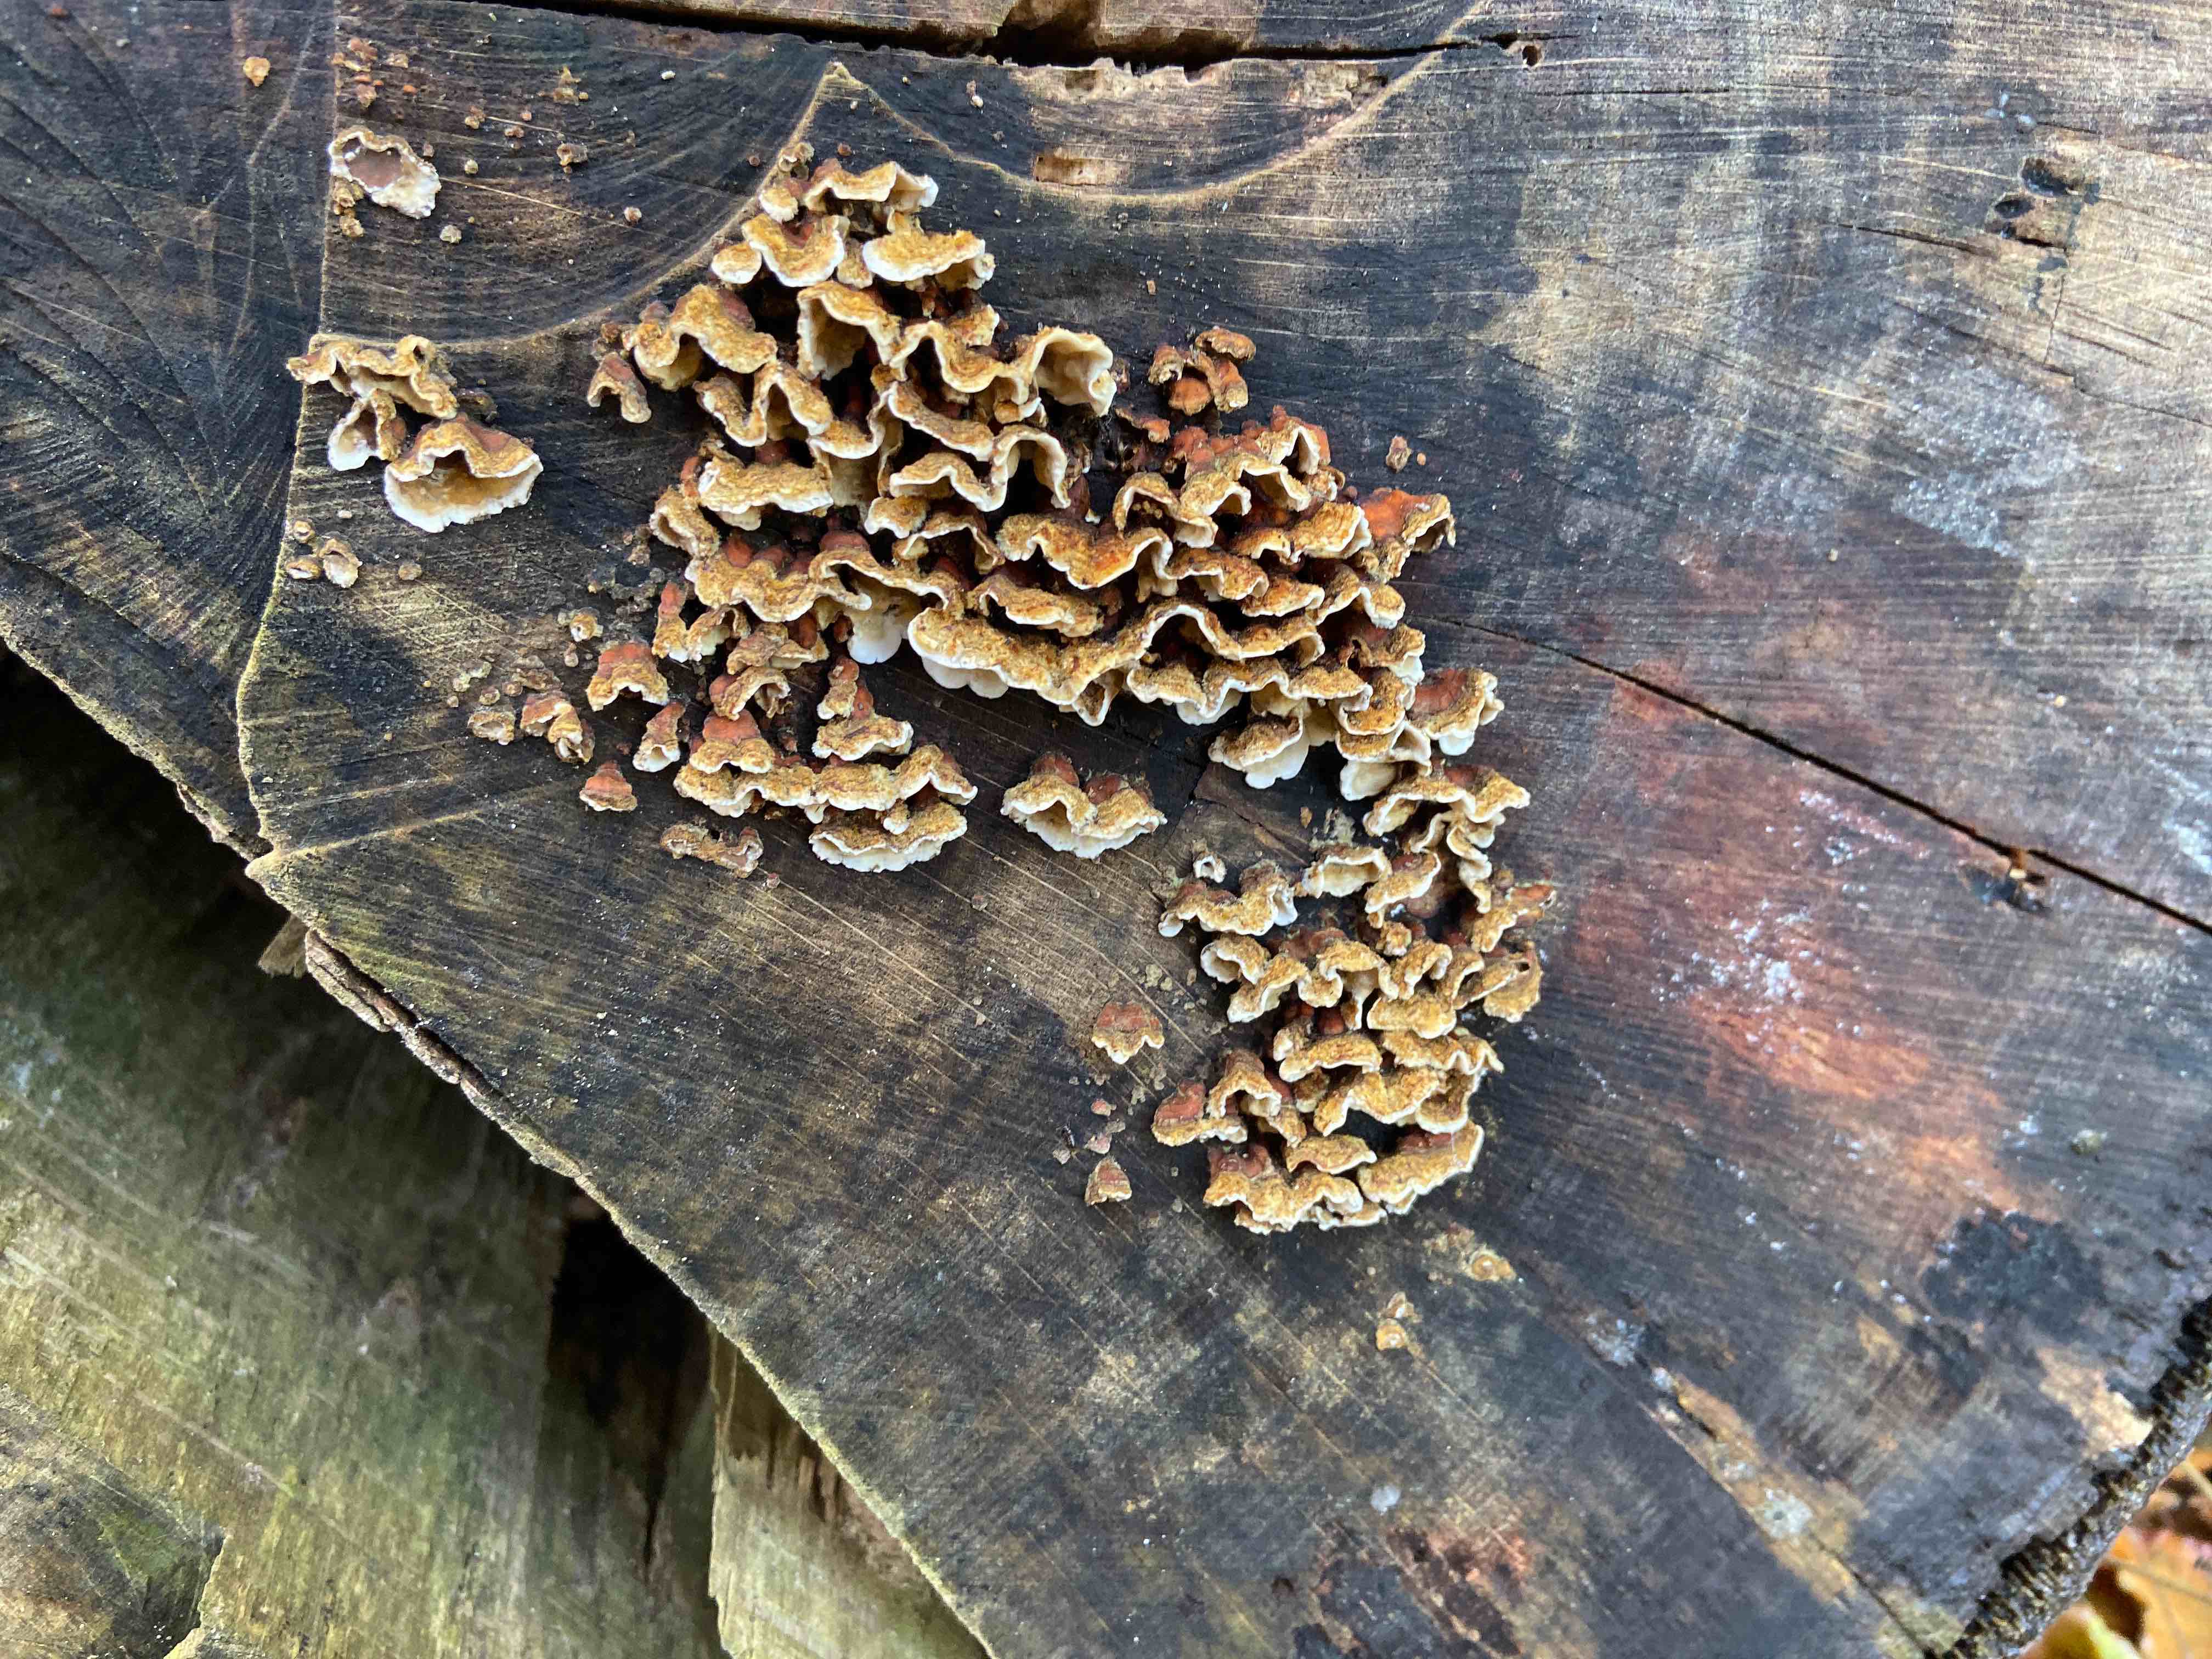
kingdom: Fungi
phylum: Basidiomycota
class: Agaricomycetes
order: Russulales
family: Stereaceae
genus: Stereum
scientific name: Stereum hirsutum
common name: håret lædersvamp
